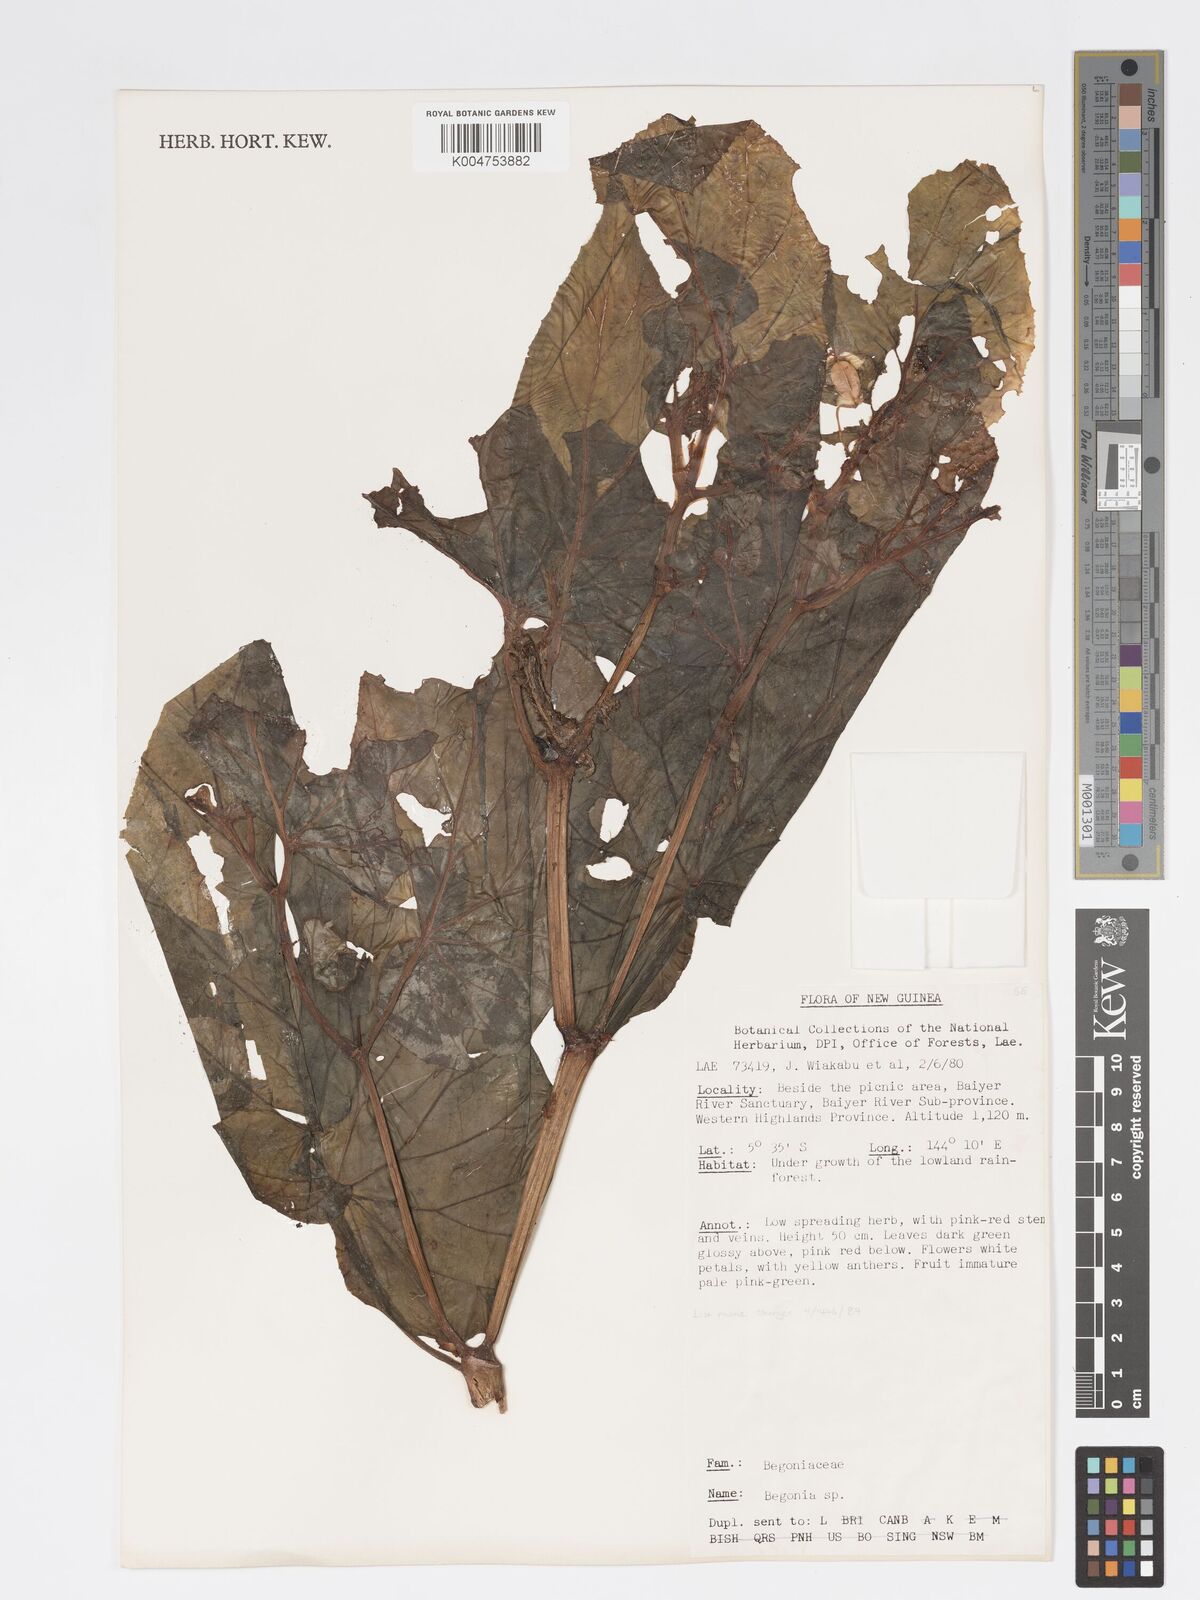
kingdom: Plantae
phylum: Tracheophyta
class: Magnoliopsida
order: Cucurbitales
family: Begoniaceae
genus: Begonia
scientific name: Begonia
